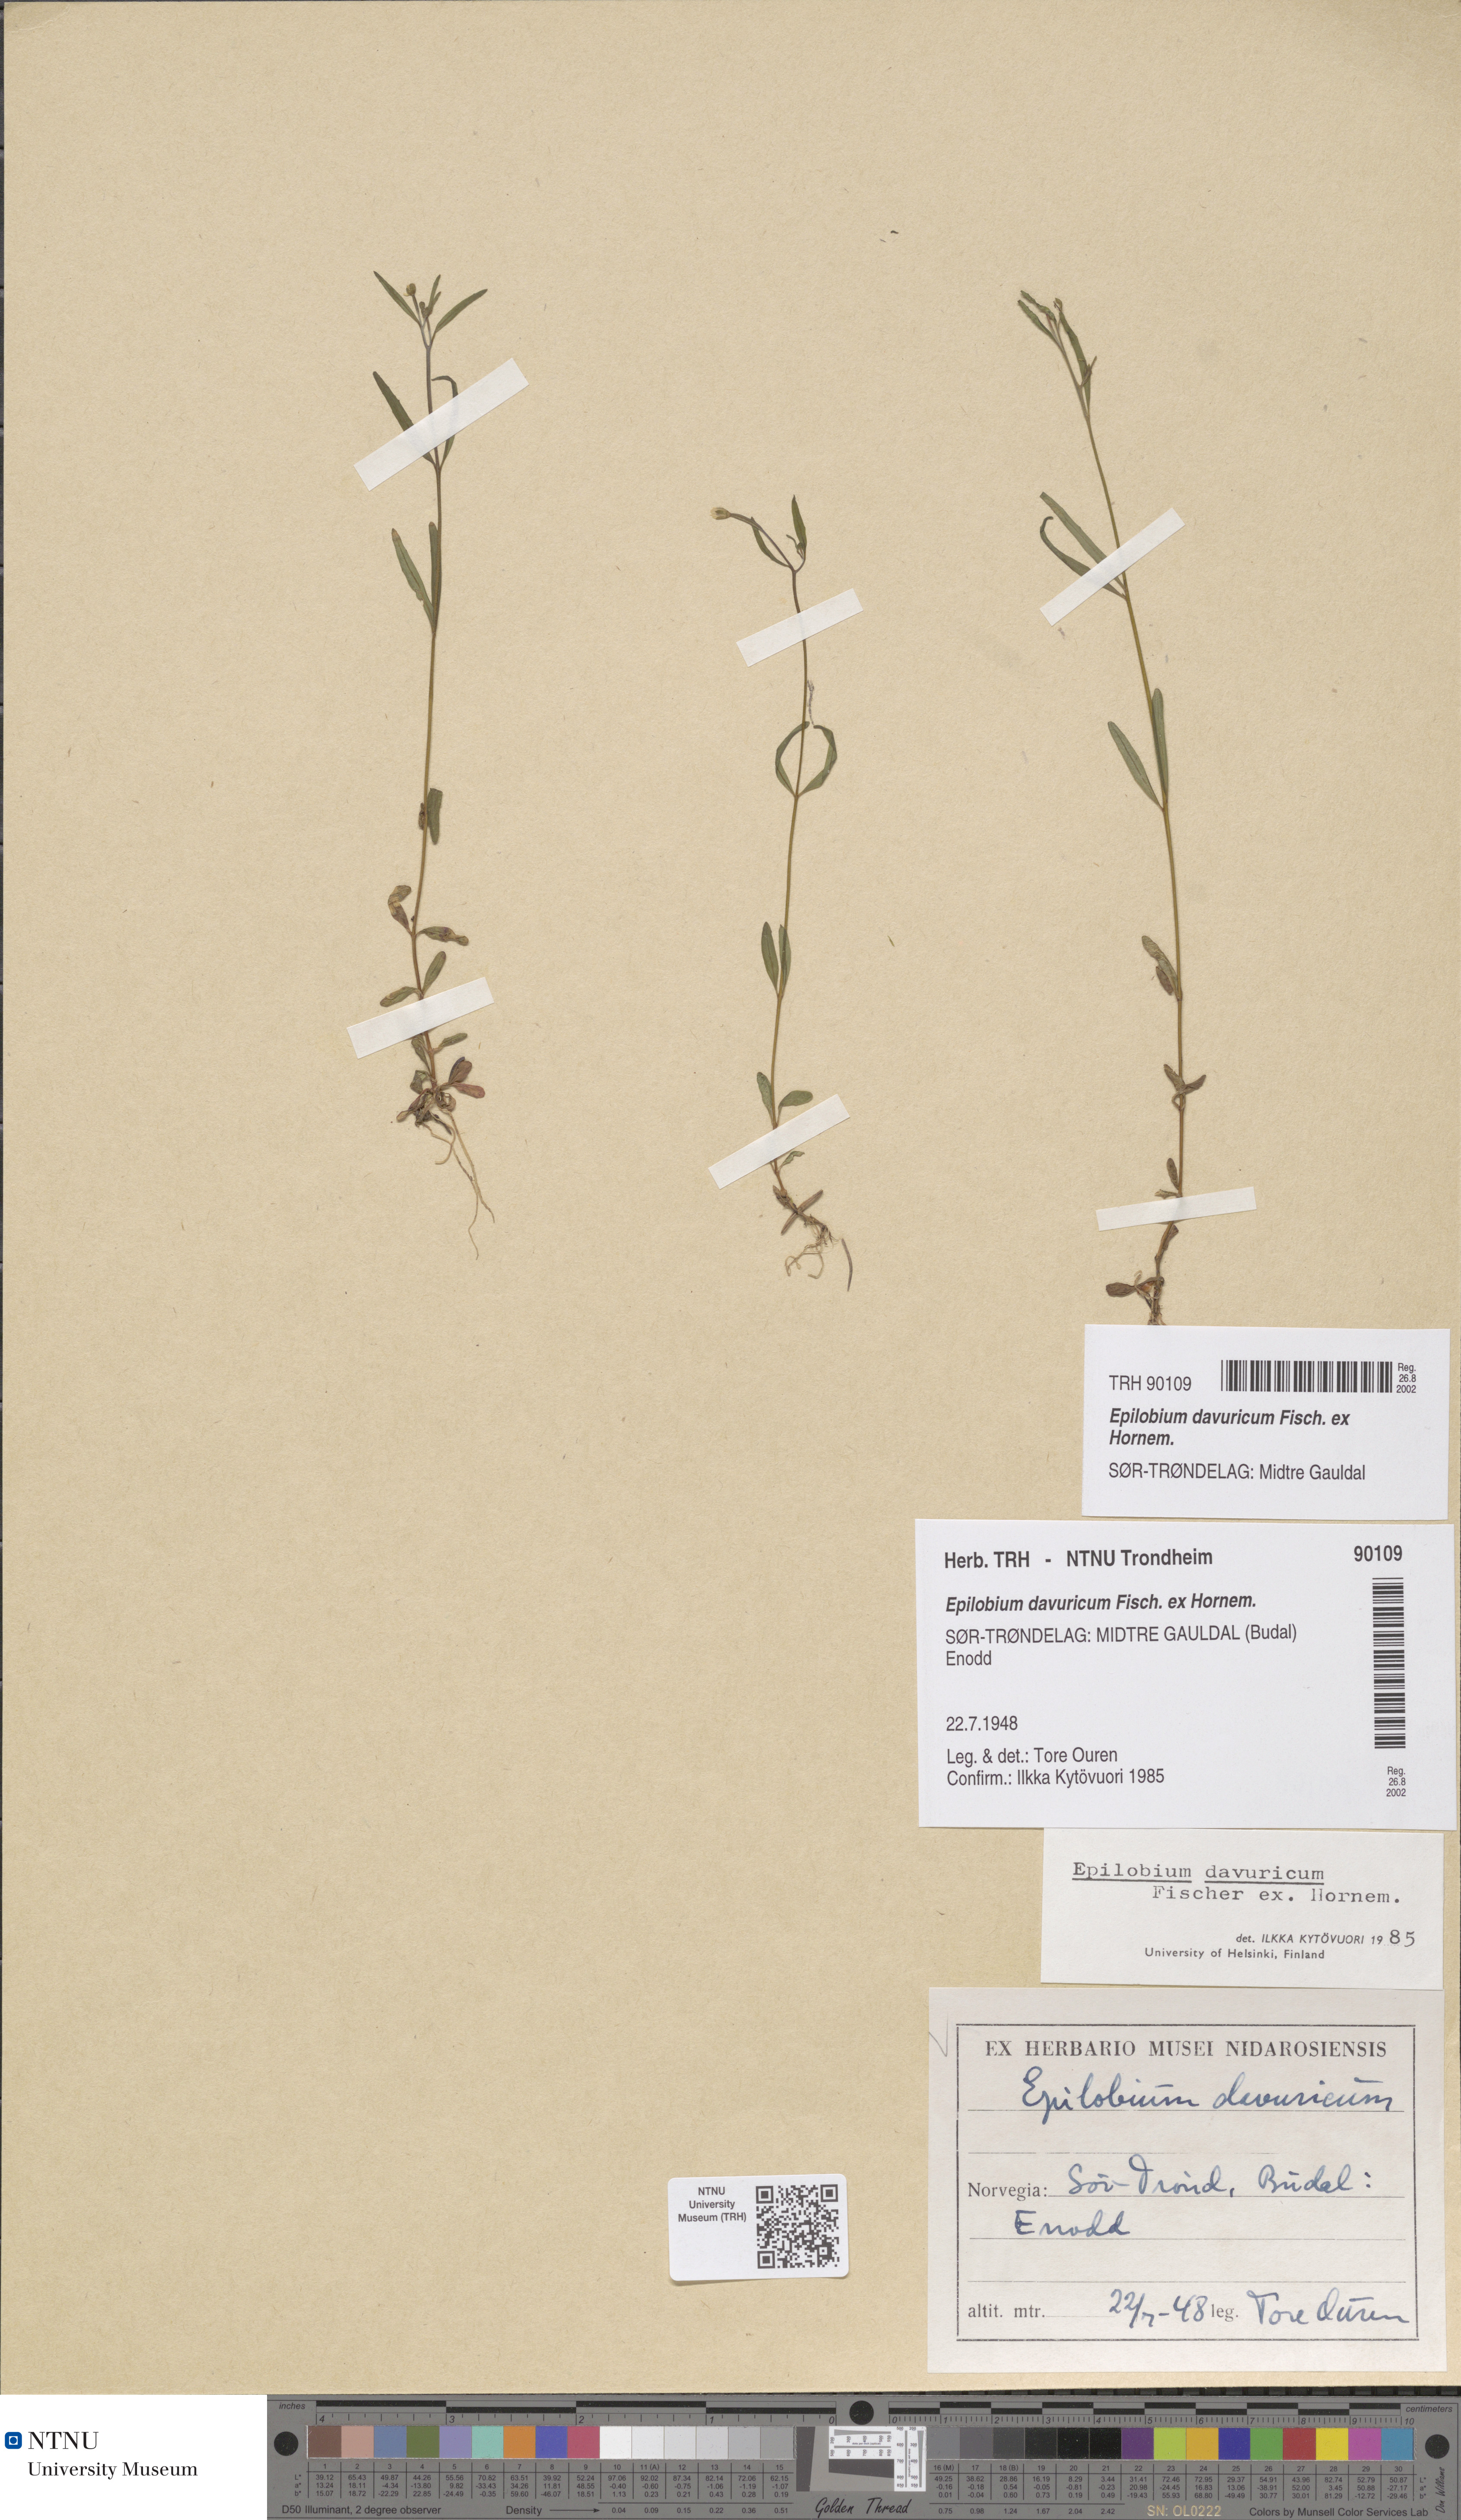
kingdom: Plantae
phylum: Tracheophyta
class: Magnoliopsida
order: Myrtales
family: Onagraceae
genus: Epilobium
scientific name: Epilobium davuricum
